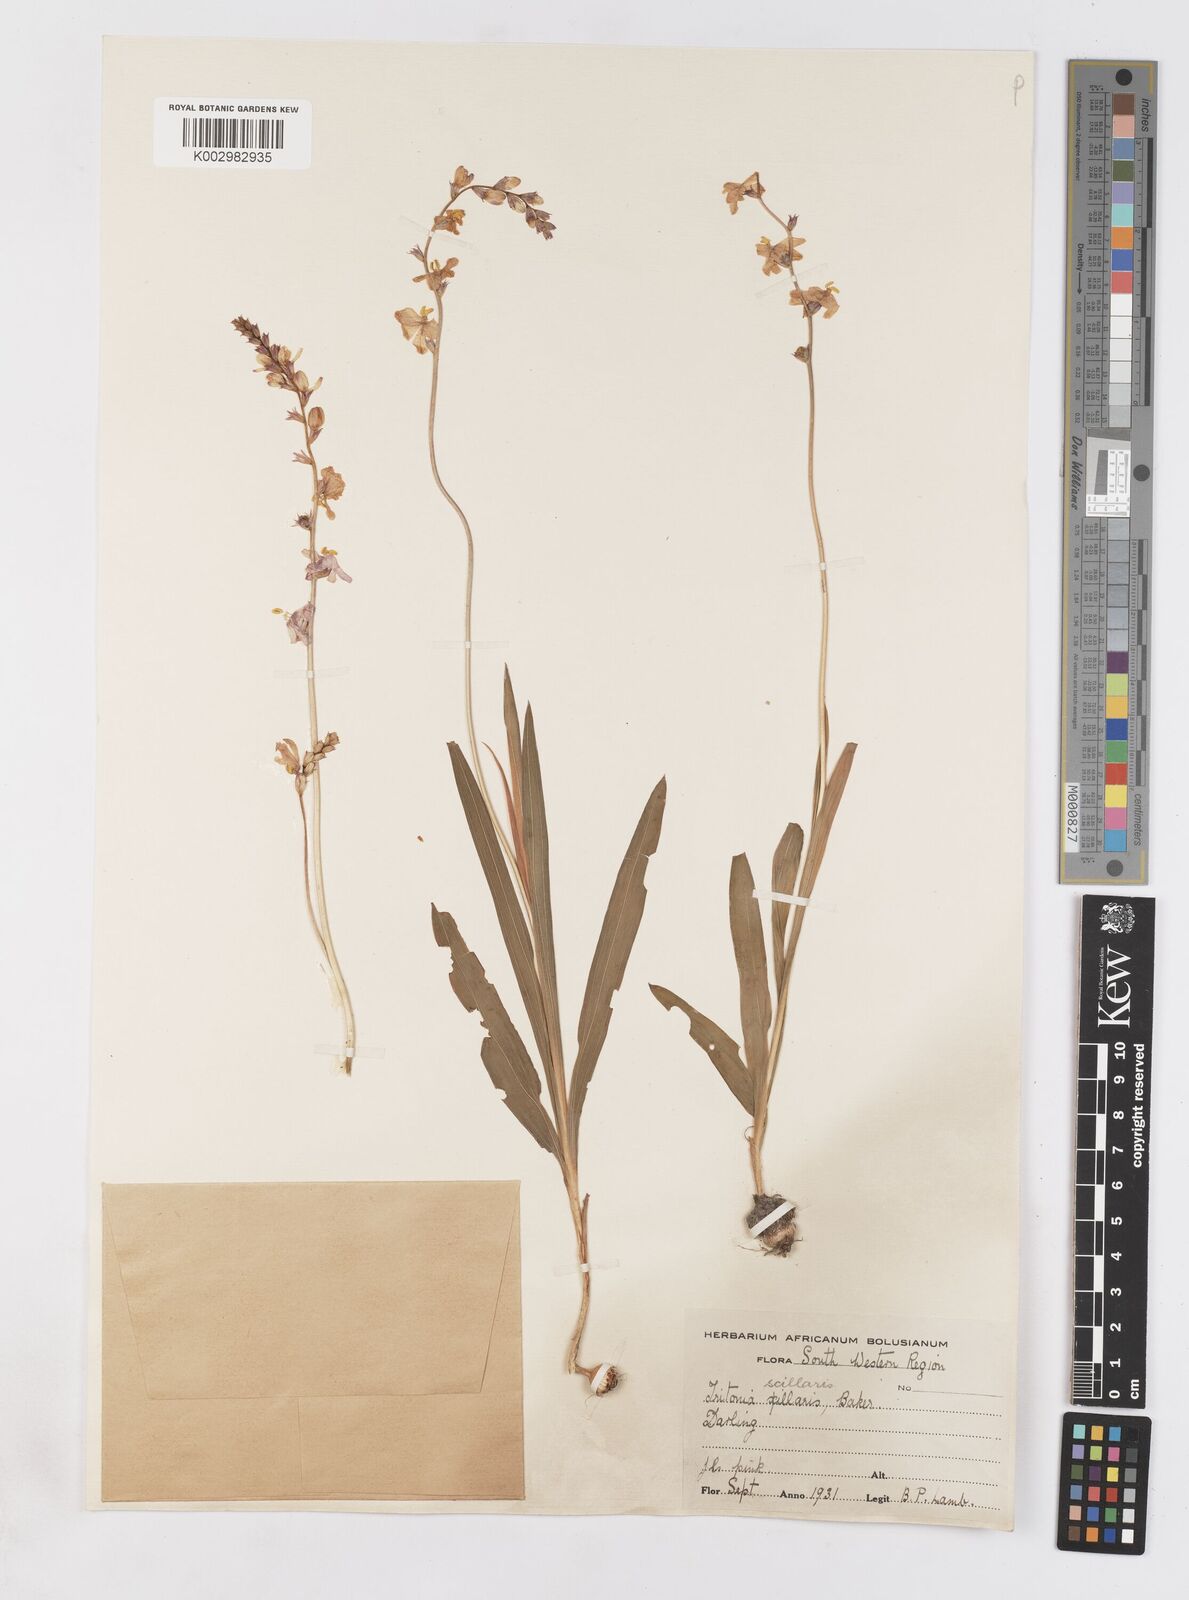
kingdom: Plantae
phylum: Tracheophyta
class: Liliopsida
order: Asparagales
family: Iridaceae
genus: Ixia
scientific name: Ixia scillaris
